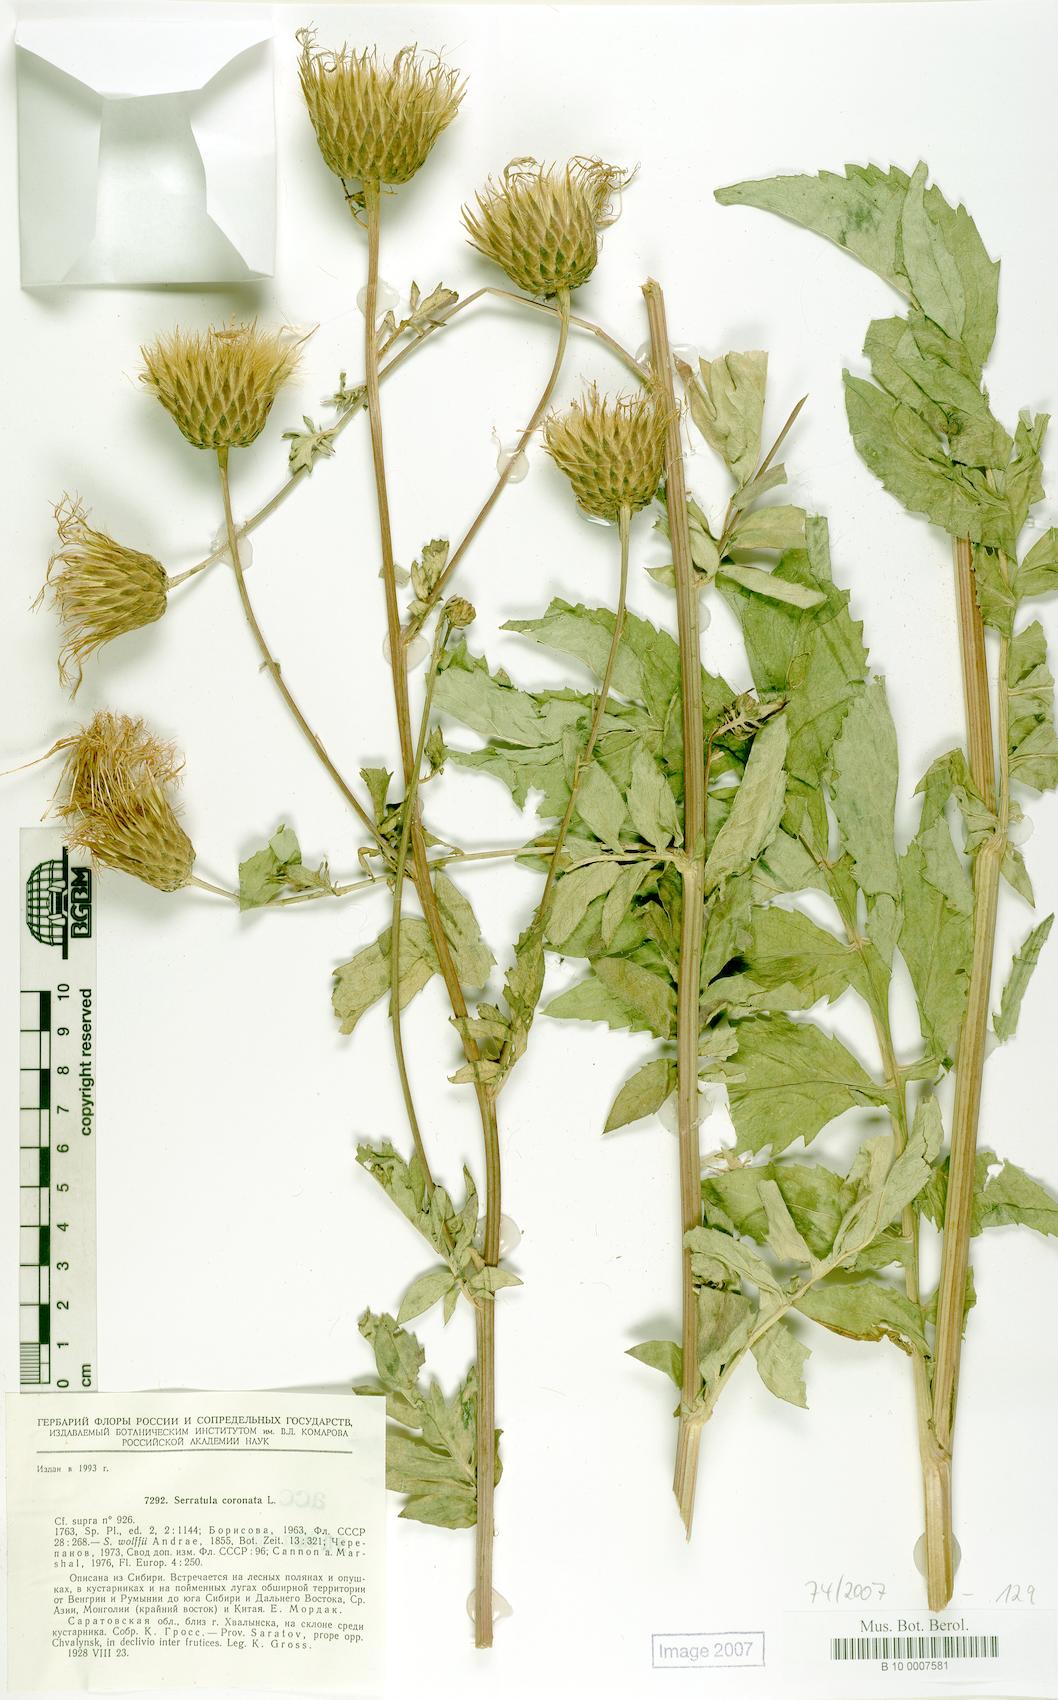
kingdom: Plantae
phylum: Tracheophyta
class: Magnoliopsida
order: Asterales
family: Asteraceae
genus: Serratula
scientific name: Serratula coronata
